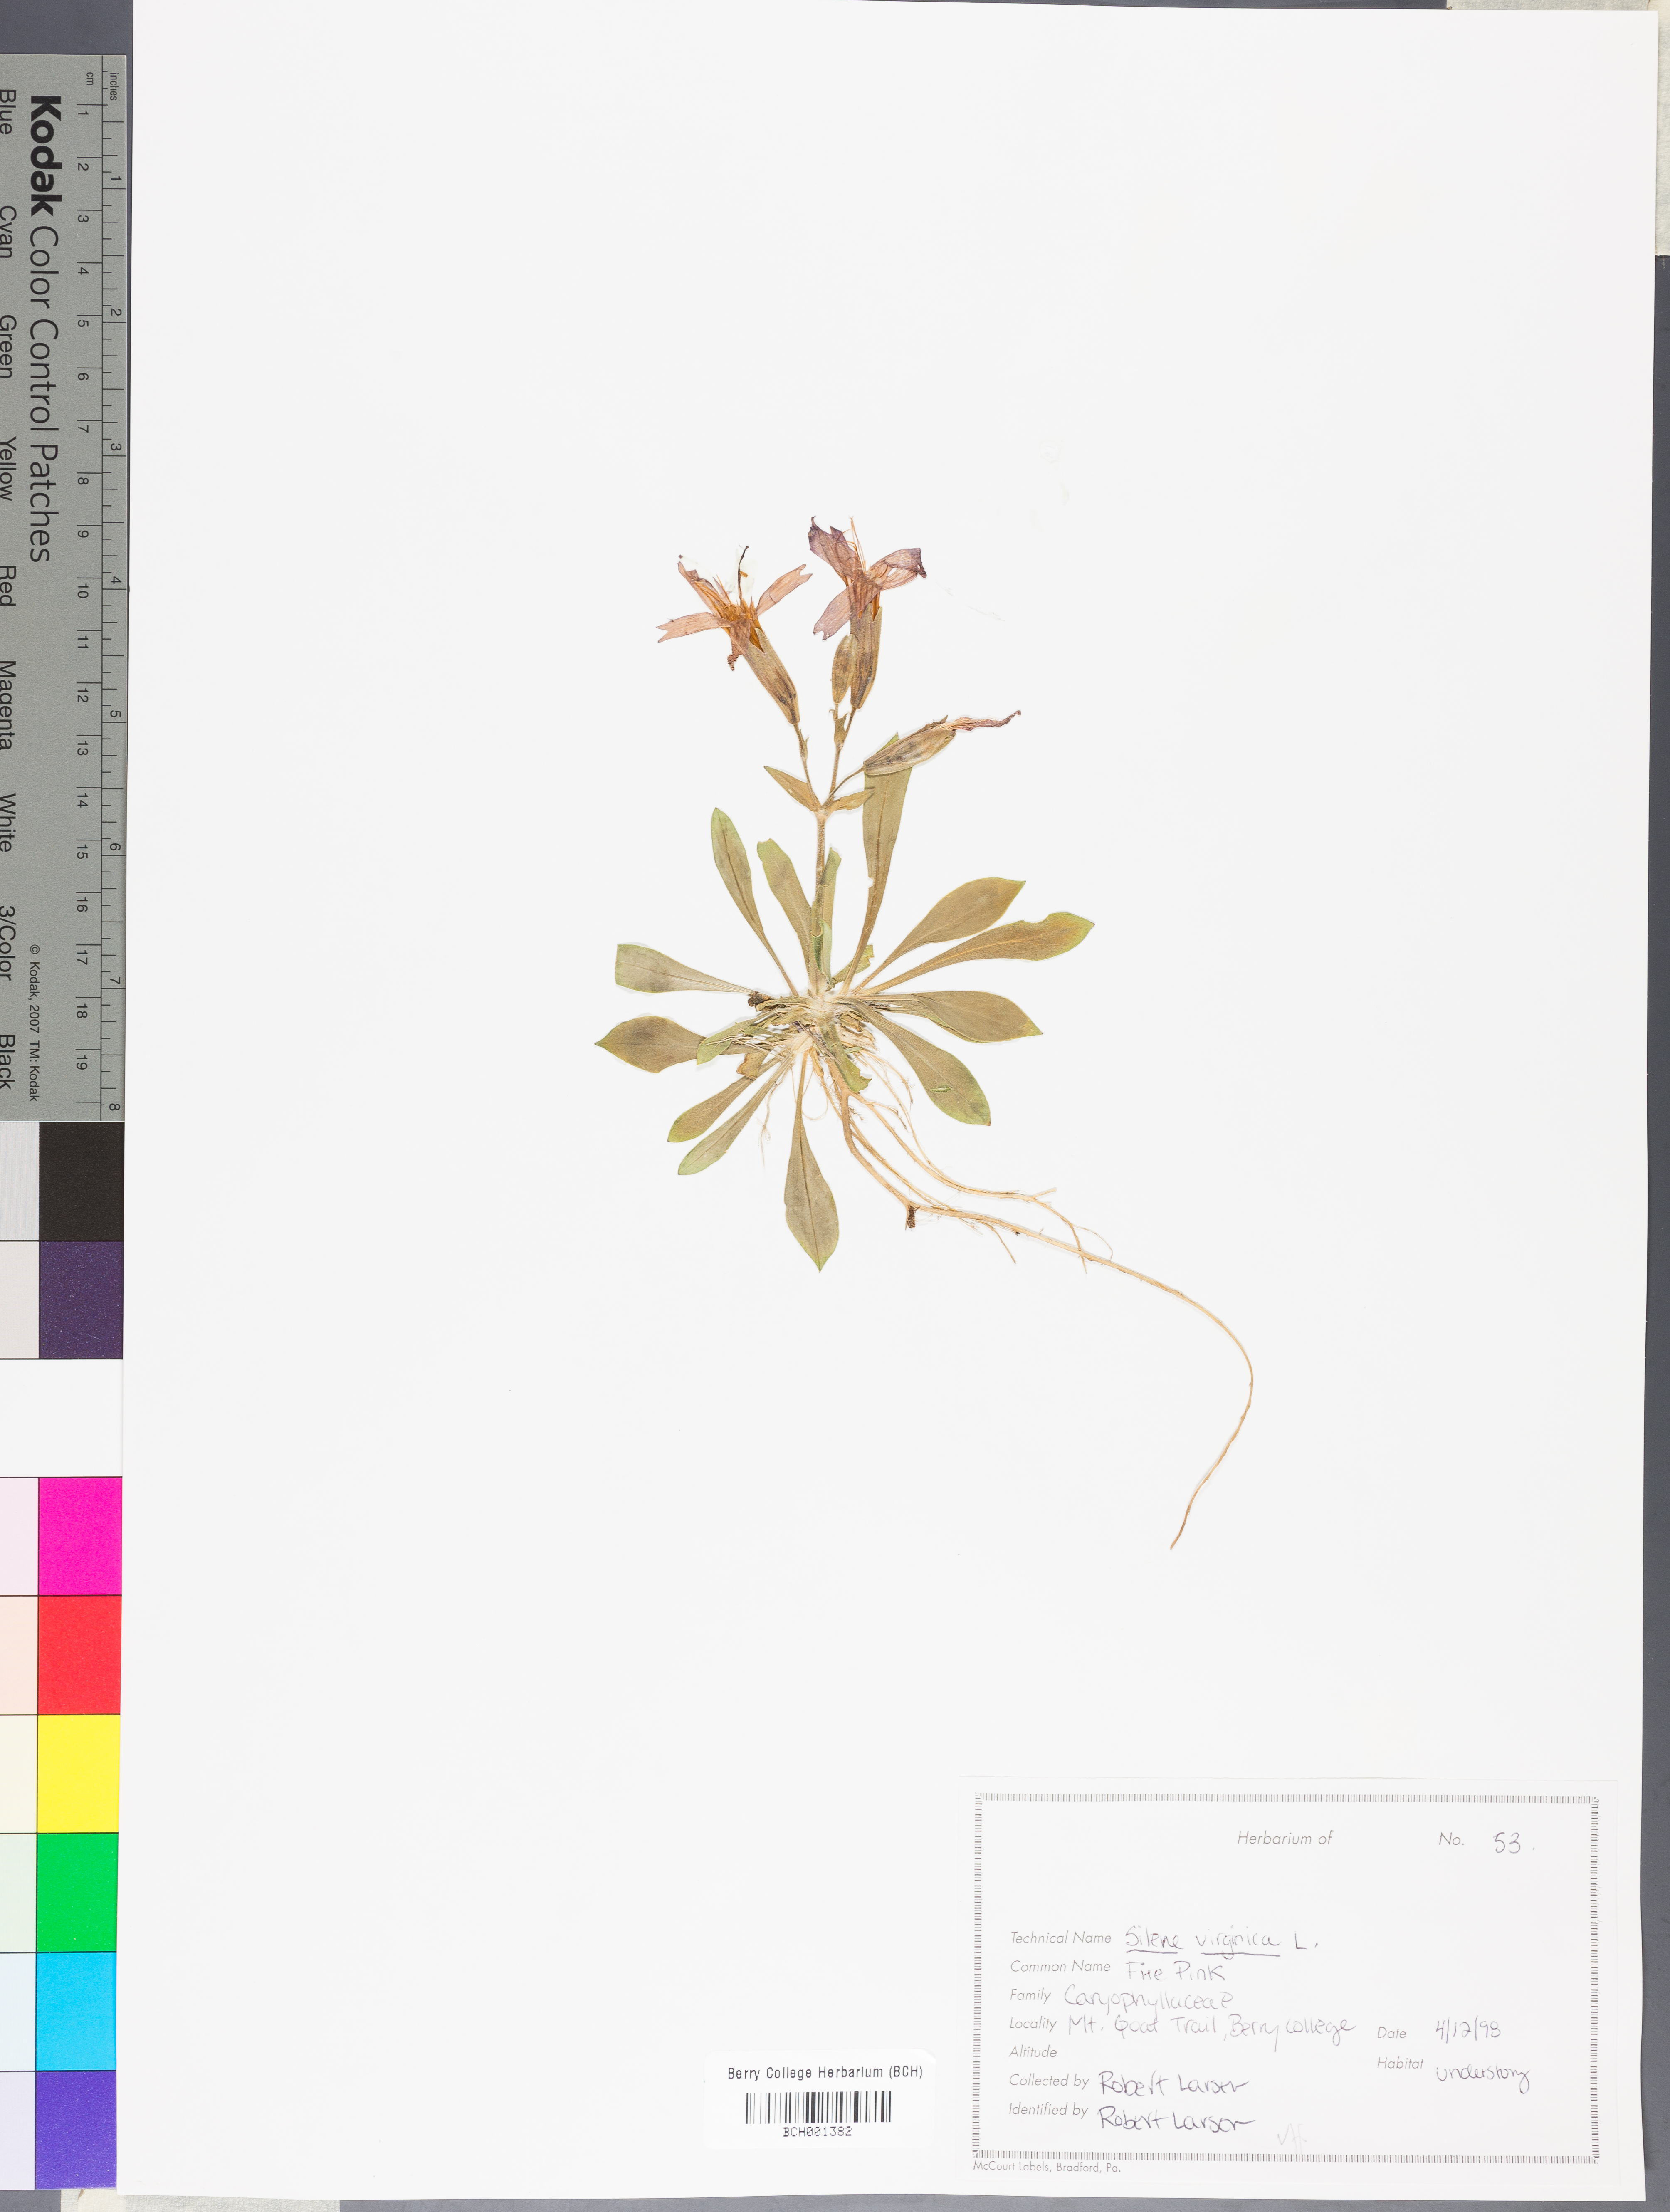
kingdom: Plantae
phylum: Tracheophyta
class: Magnoliopsida
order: Caryophyllales
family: Caryophyllaceae
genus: Silene
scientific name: Silene virginica
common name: Fire-pink
